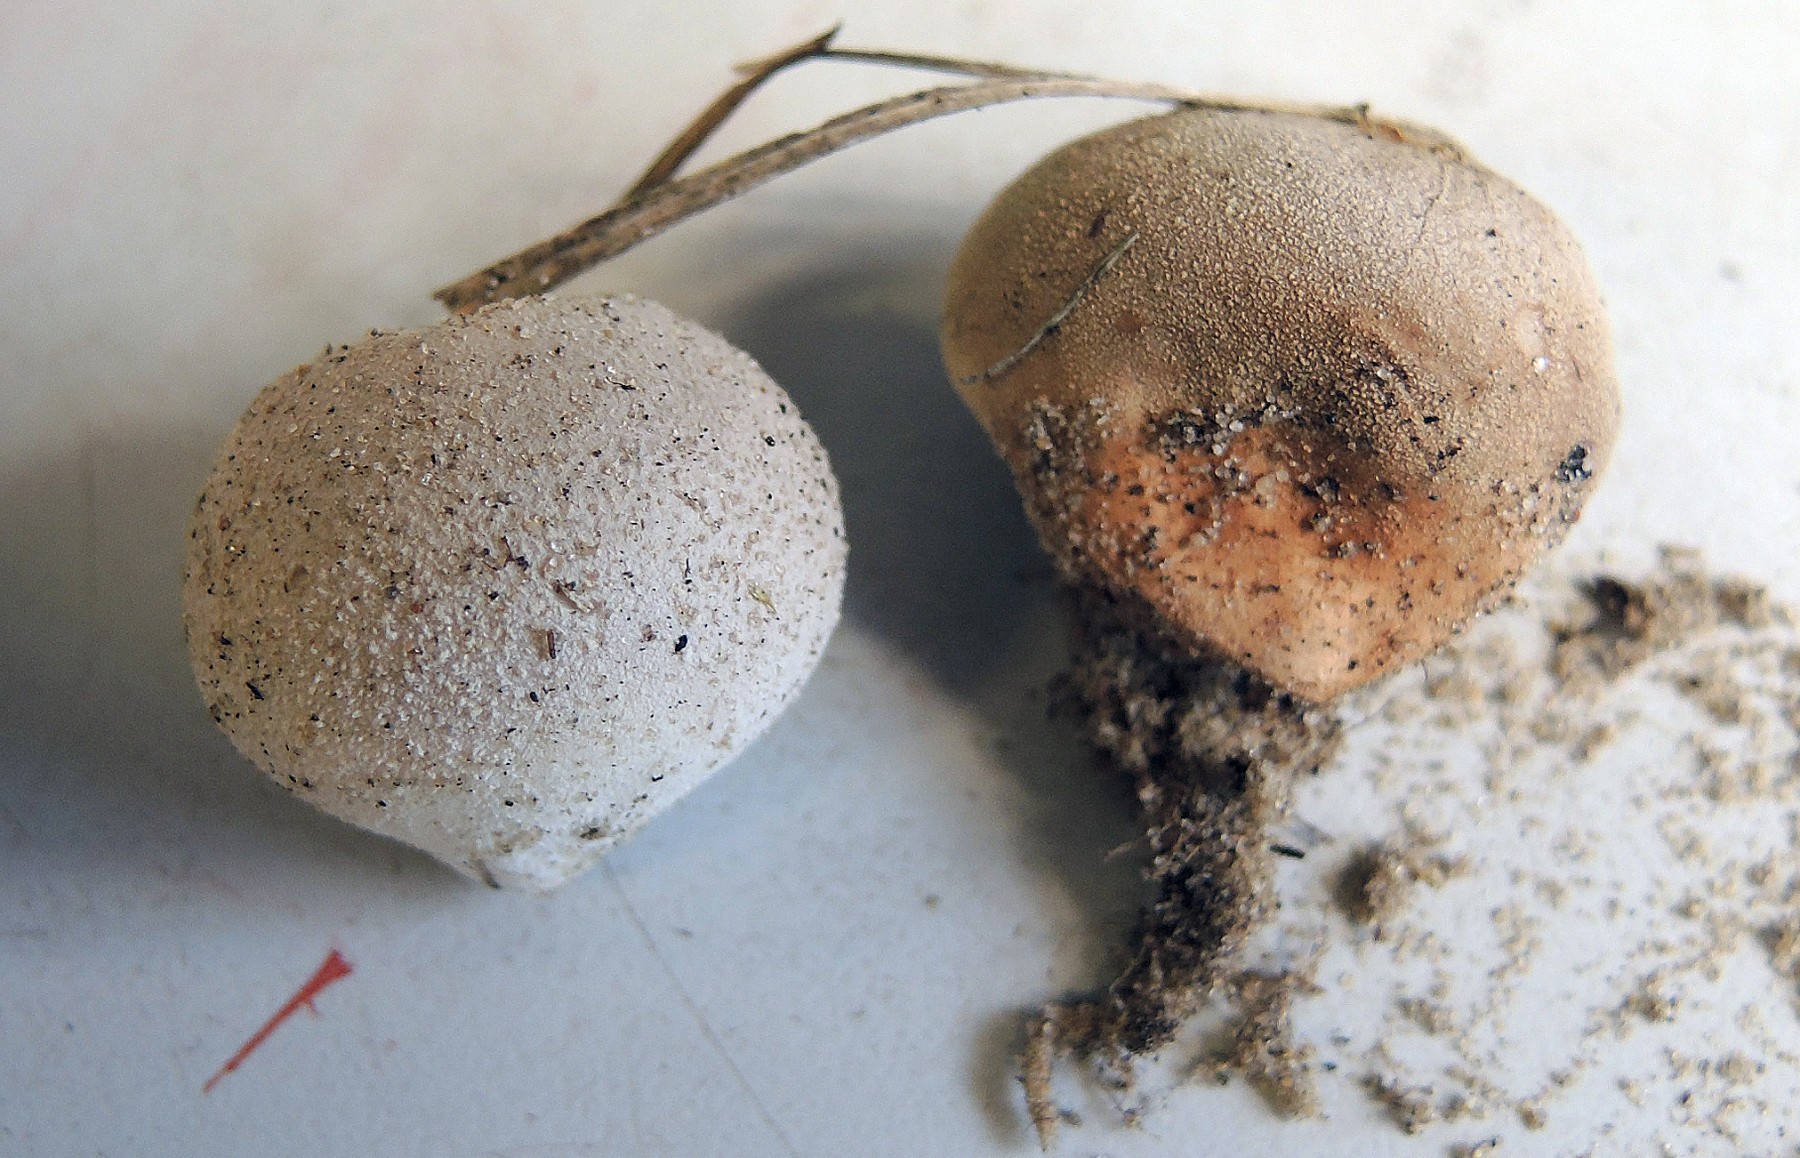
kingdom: Fungi
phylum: Basidiomycota
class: Agaricomycetes
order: Agaricales
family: Lycoperdaceae
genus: Bovista
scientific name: Bovista aestivalis
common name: klit-bovist
